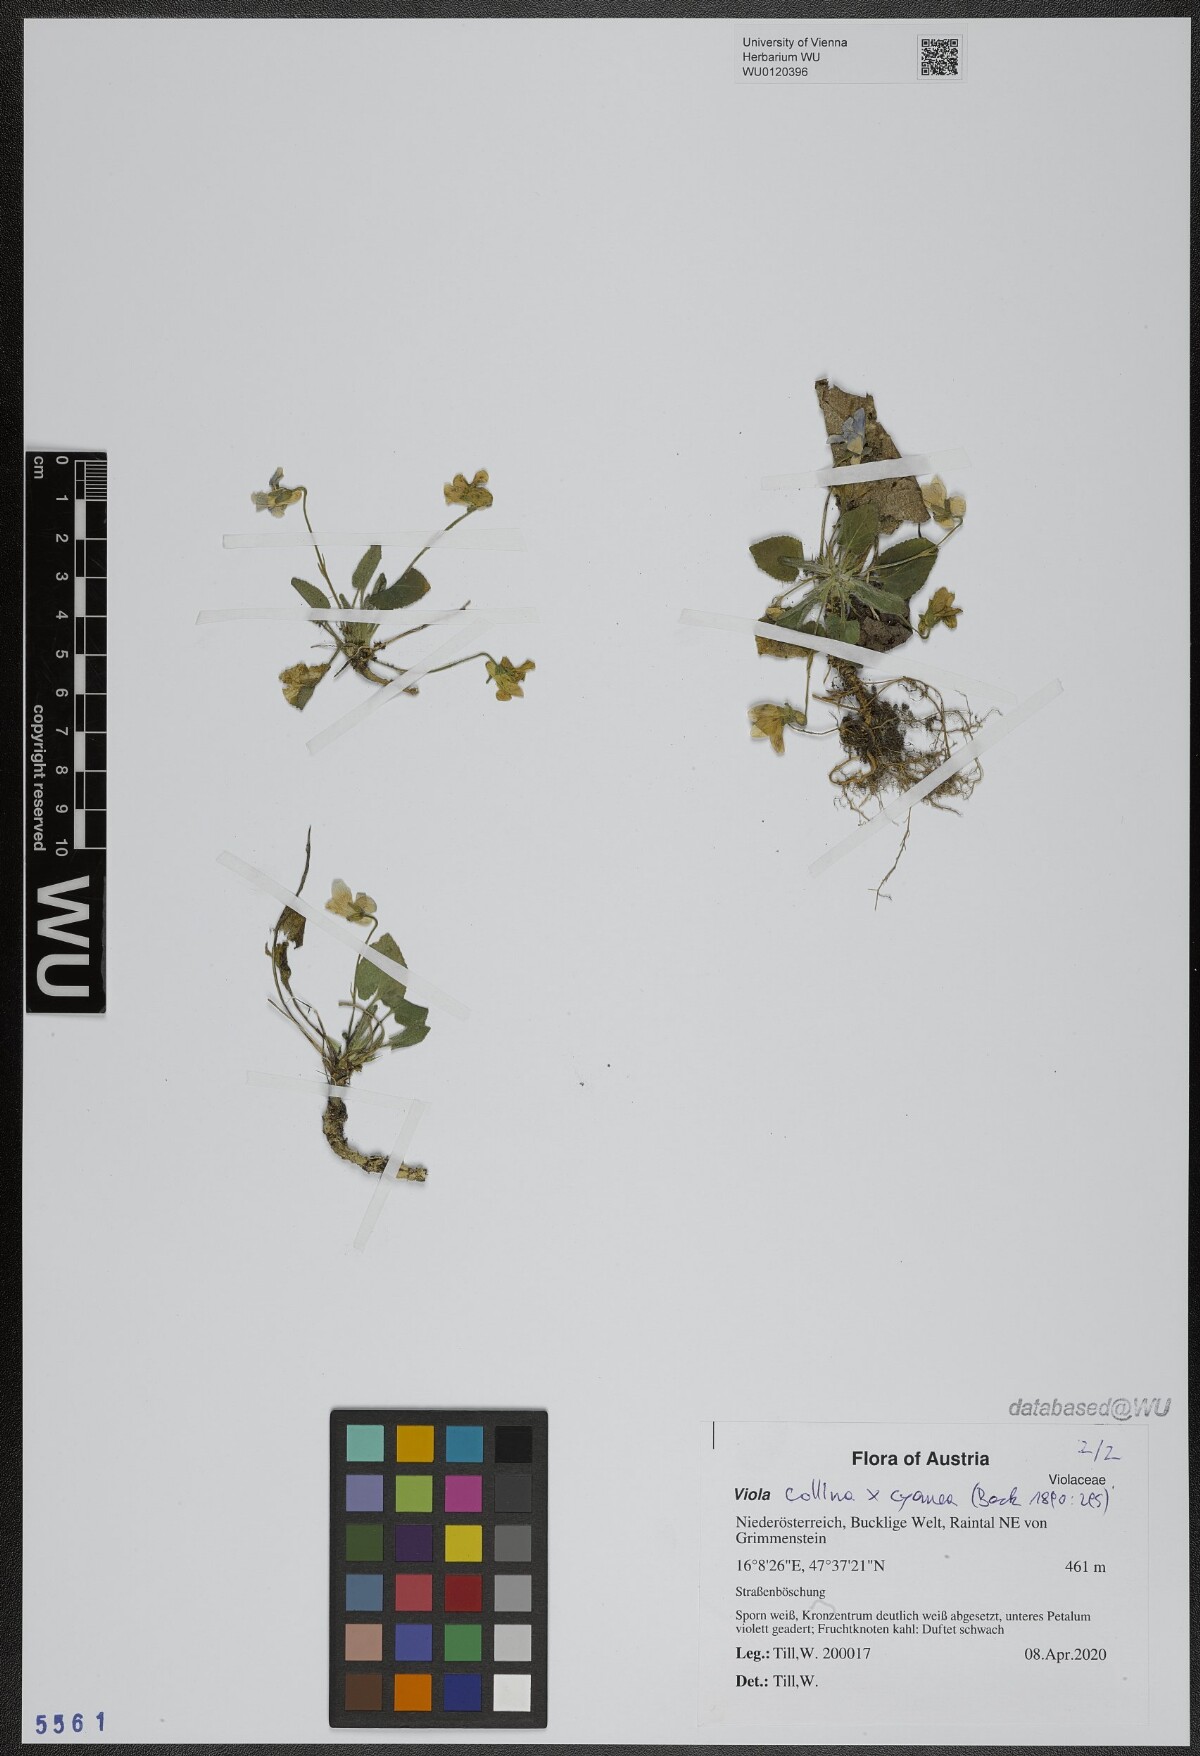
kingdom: Plantae
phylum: Tracheophyta
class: Magnoliopsida
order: Malpighiales
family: Violaceae
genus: Viola
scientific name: Viola
